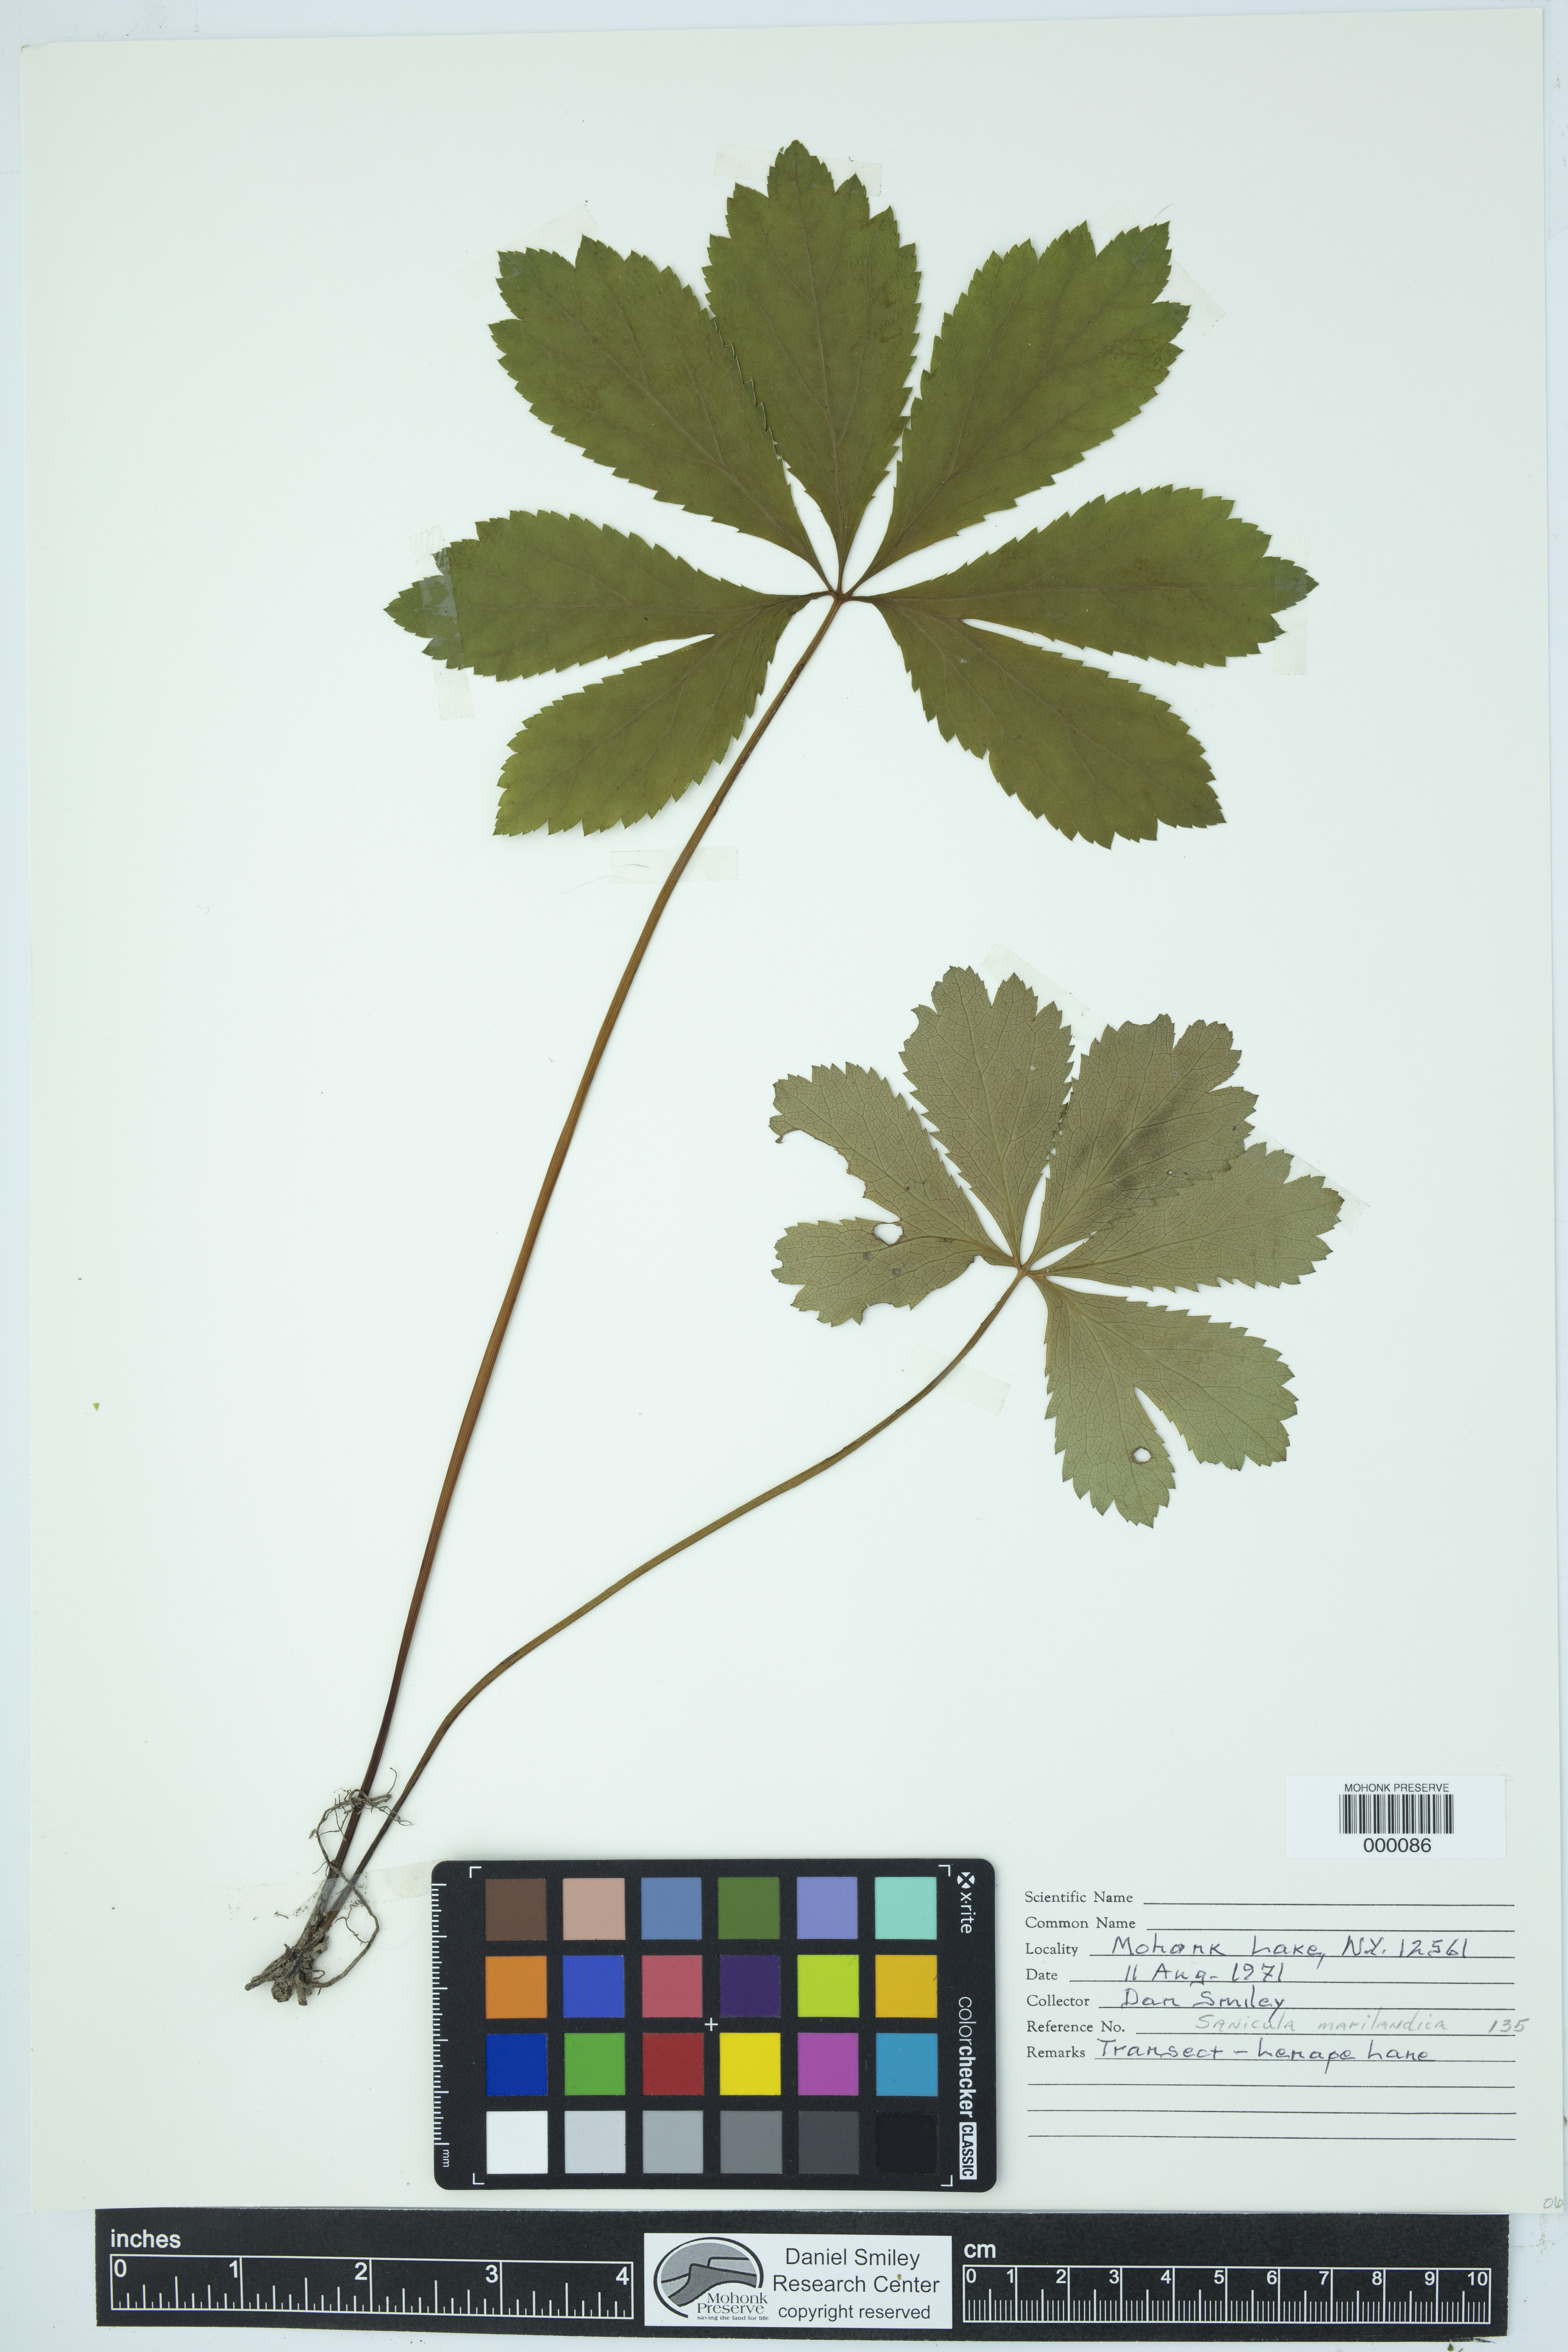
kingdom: Plantae
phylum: Tracheophyta
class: Magnoliopsida
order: Apiales
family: Apiaceae
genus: Sanicula
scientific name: Sanicula marilandica
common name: Black snakeroot
